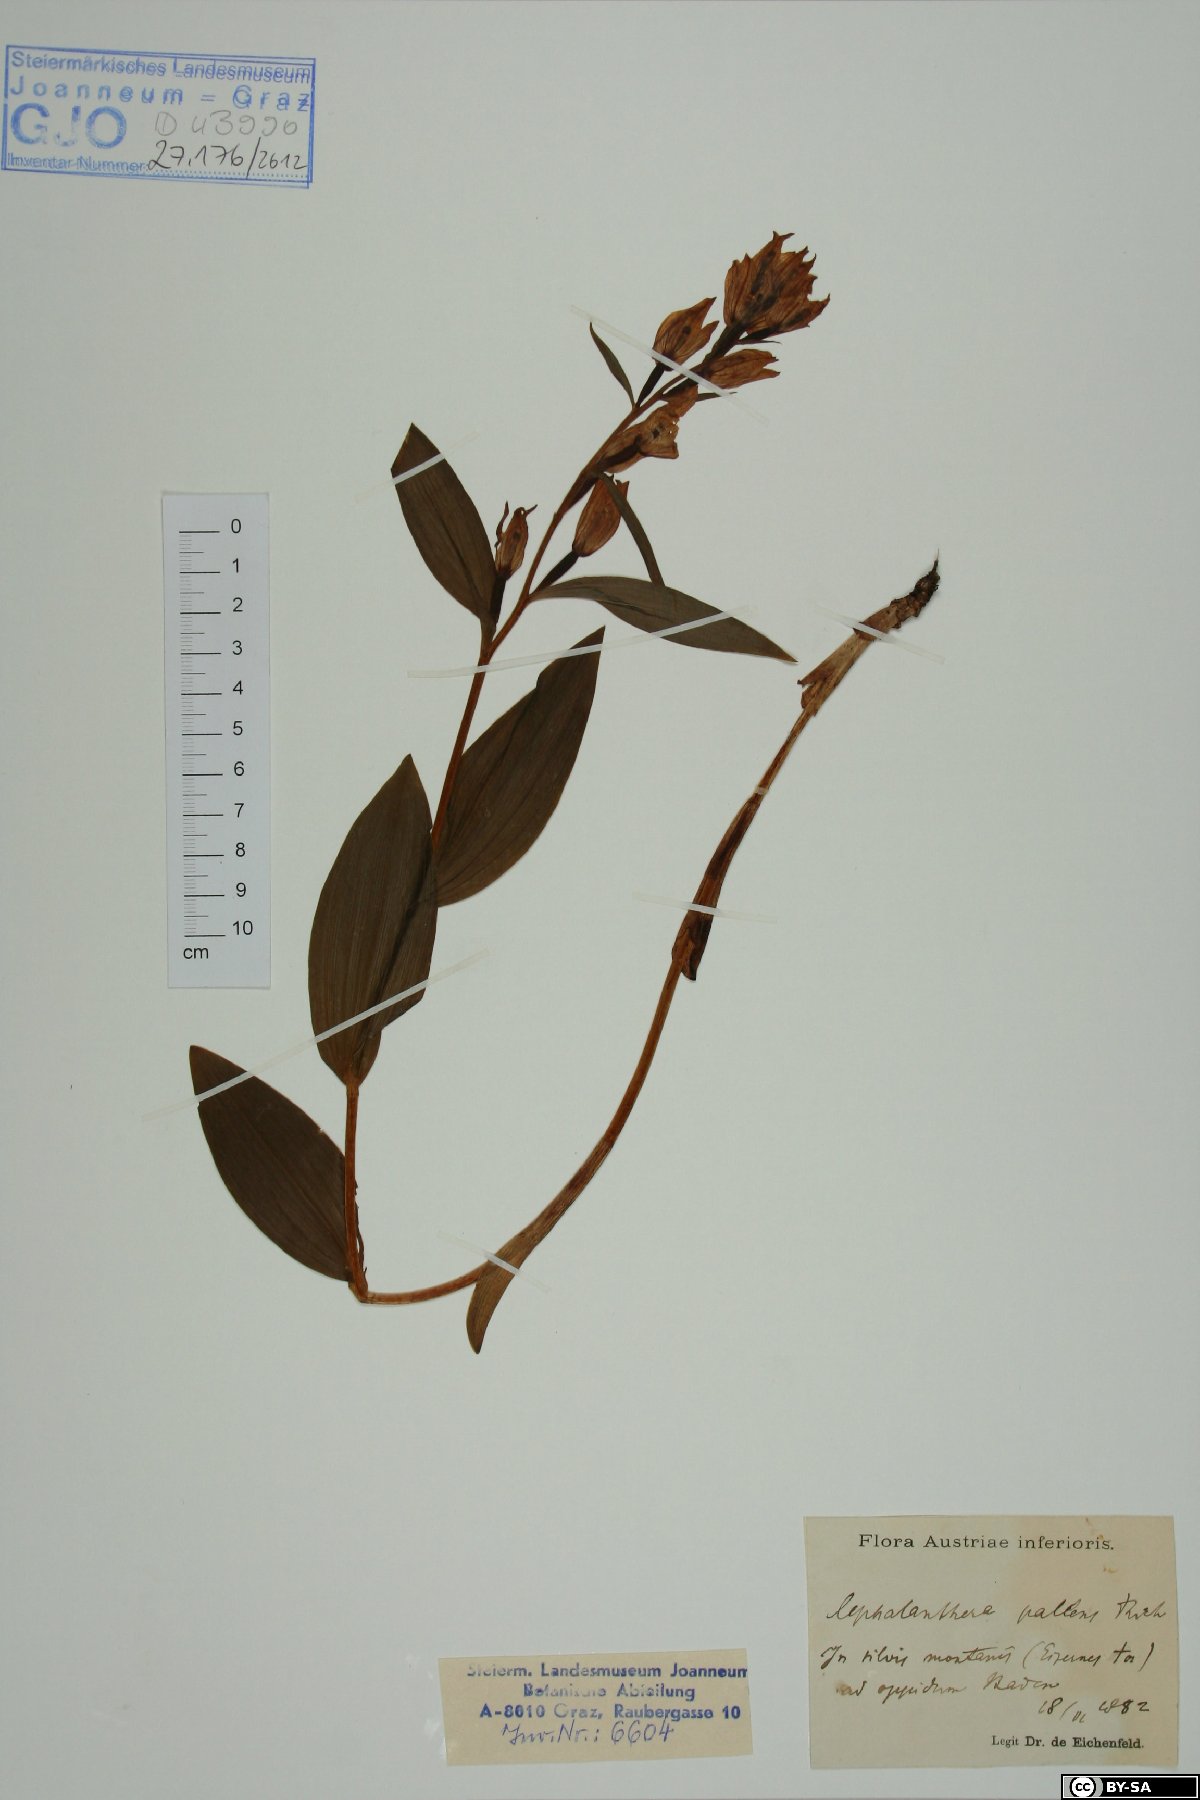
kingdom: Plantae
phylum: Tracheophyta
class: Liliopsida
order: Asparagales
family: Orchidaceae
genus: Cephalanthera
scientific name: Cephalanthera longifolia
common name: Narrow-leaved helleborine
